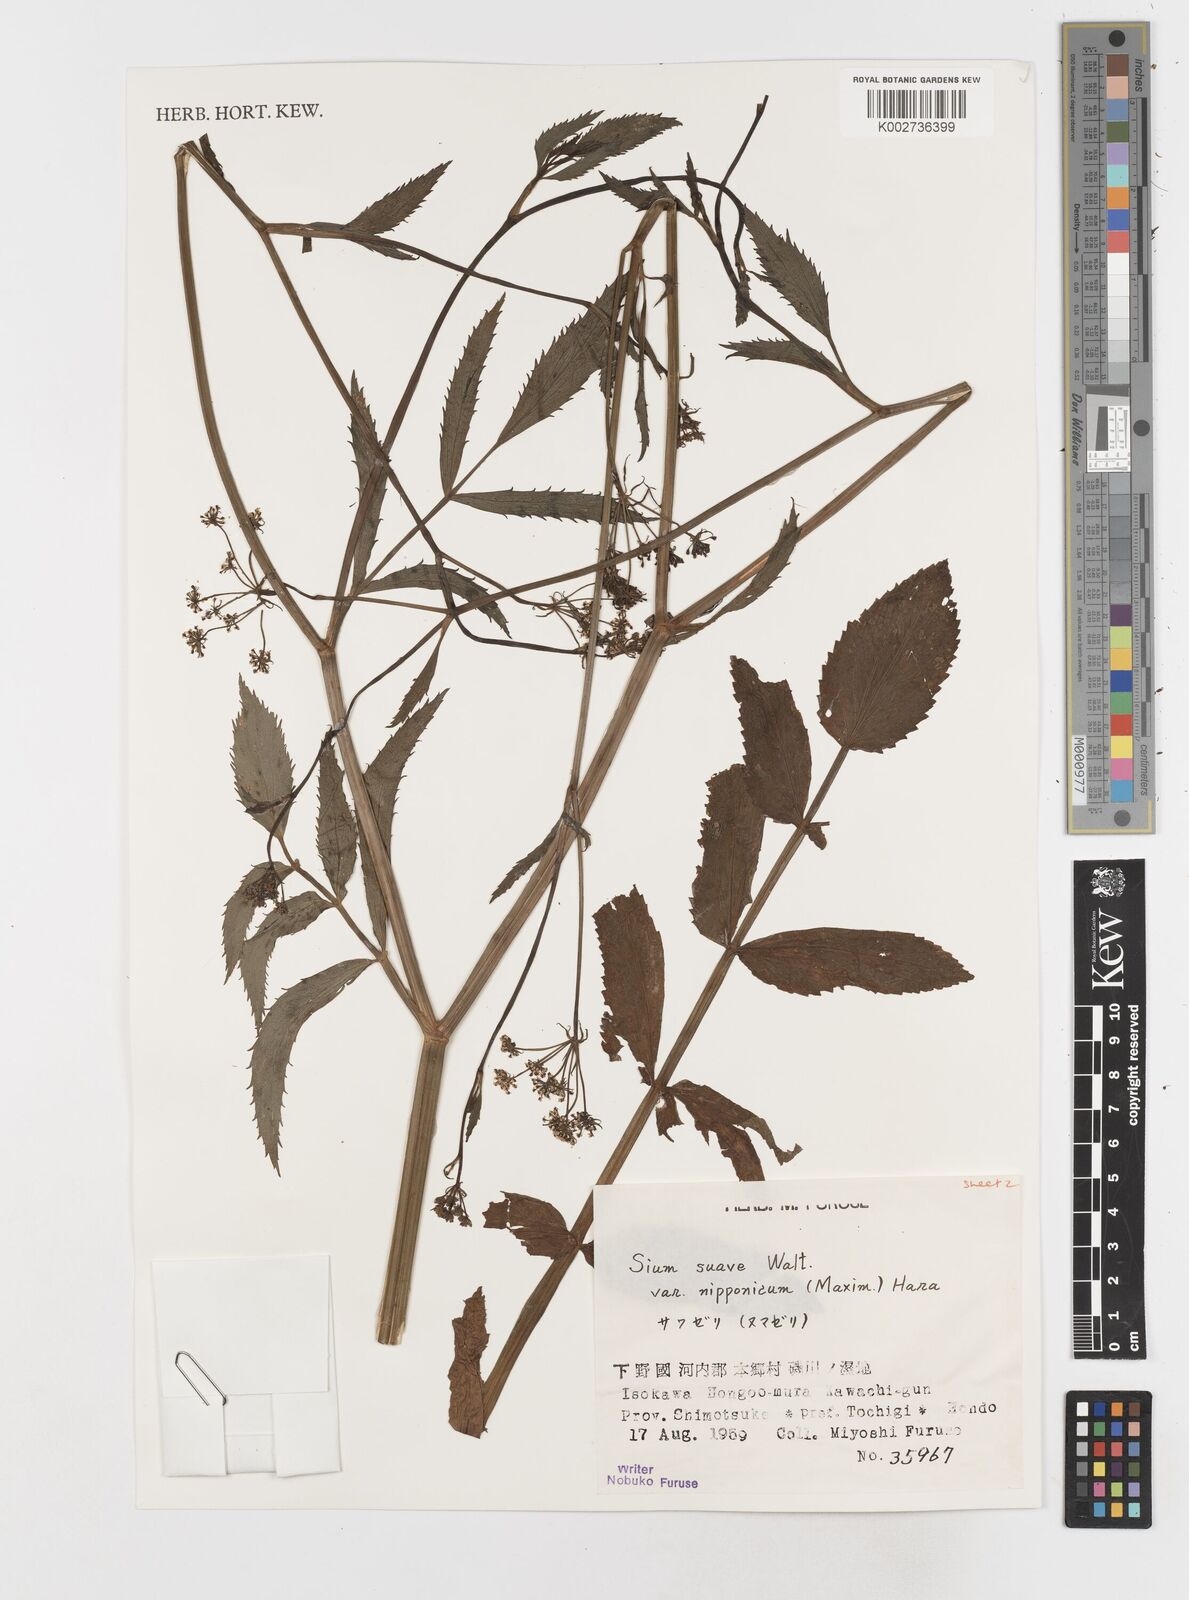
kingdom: Plantae
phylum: Tracheophyta
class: Magnoliopsida
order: Apiales
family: Apiaceae
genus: Sium
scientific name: Sium suave
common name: Hemlock water-parsnip
